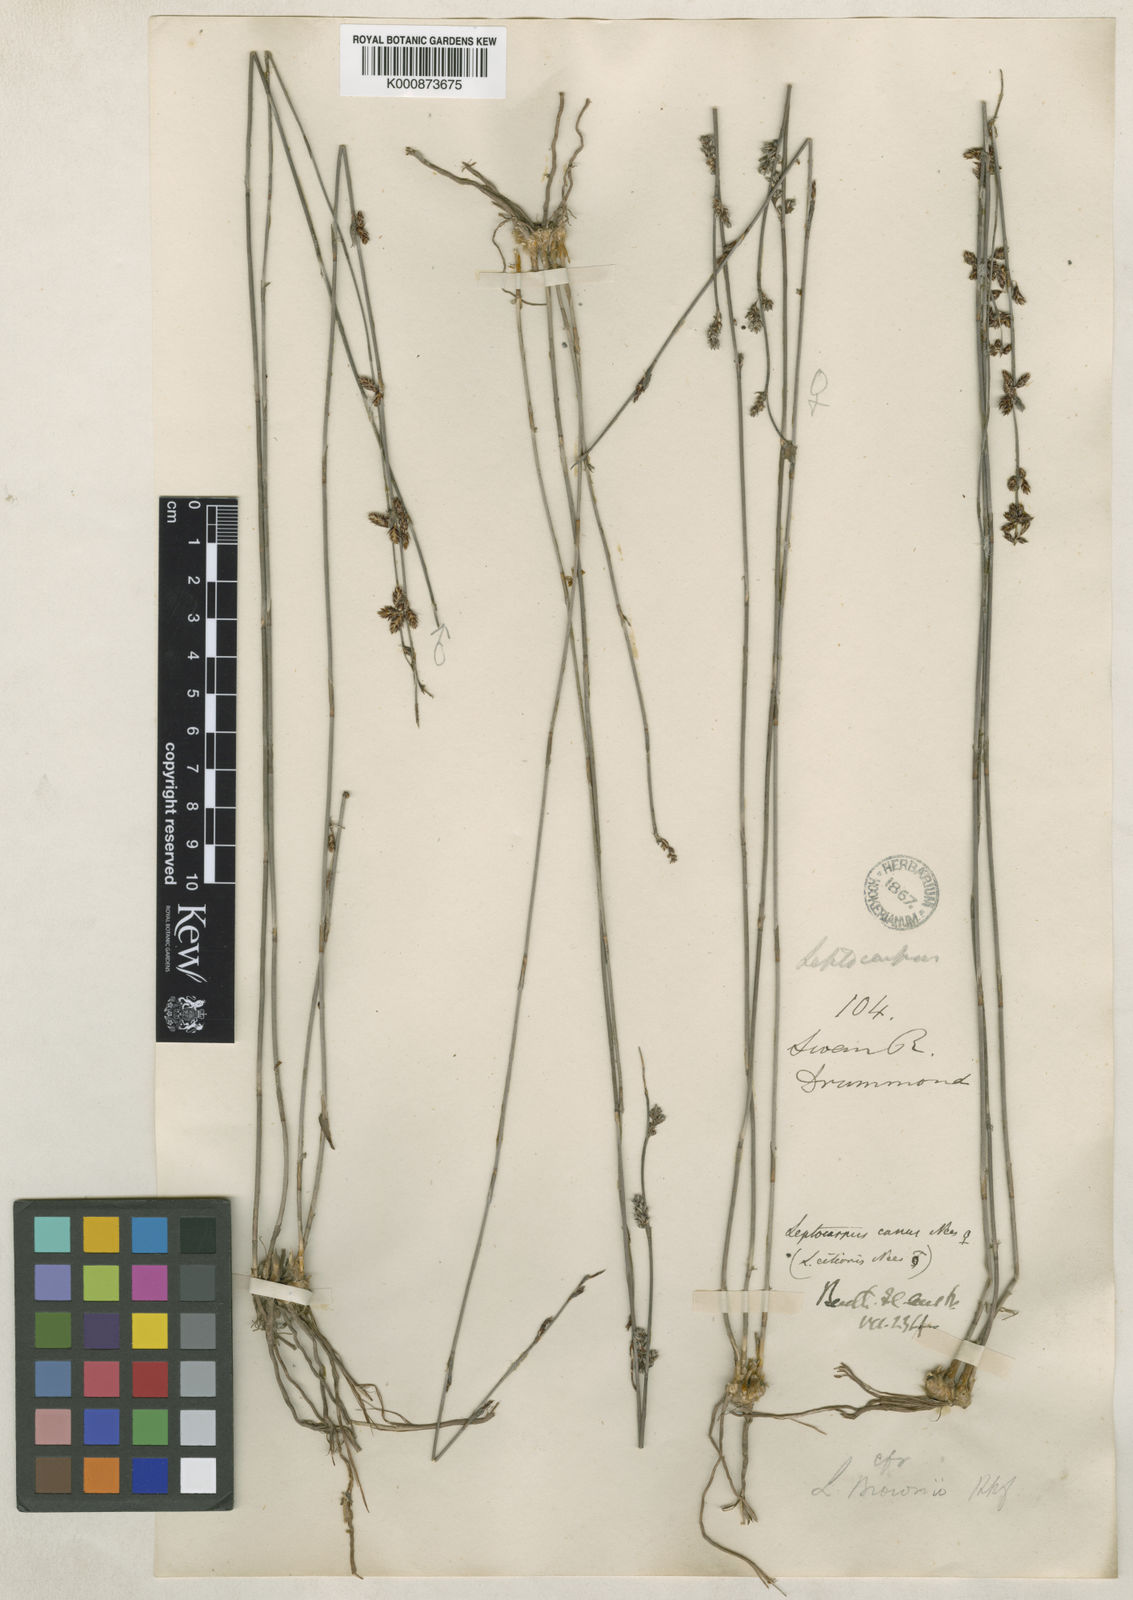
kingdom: Plantae
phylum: Tracheophyta
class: Liliopsida
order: Poales
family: Restionaceae
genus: Leptocarpus
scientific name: Leptocarpus canus
